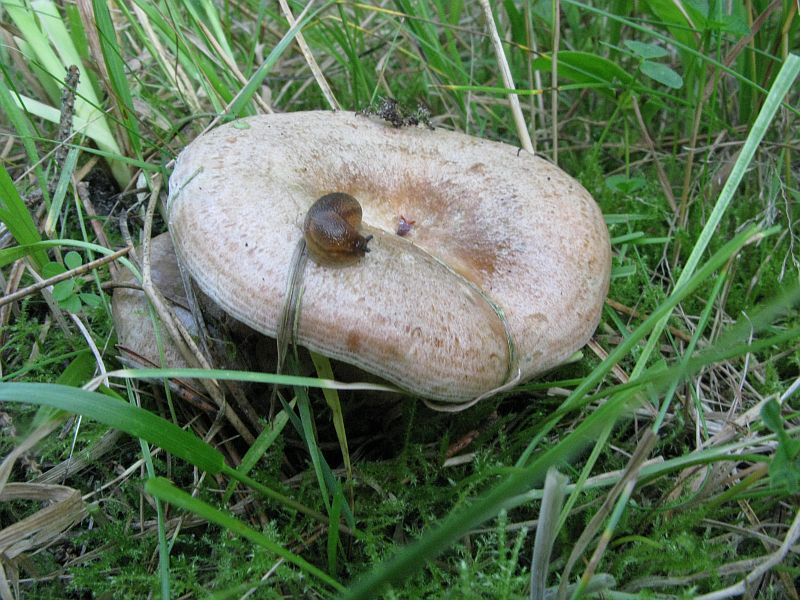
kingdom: Fungi
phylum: Basidiomycota
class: Agaricomycetes
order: Russulales
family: Russulaceae
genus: Lactarius
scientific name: Lactarius quieticolor
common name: tvefarvet mælkehat
